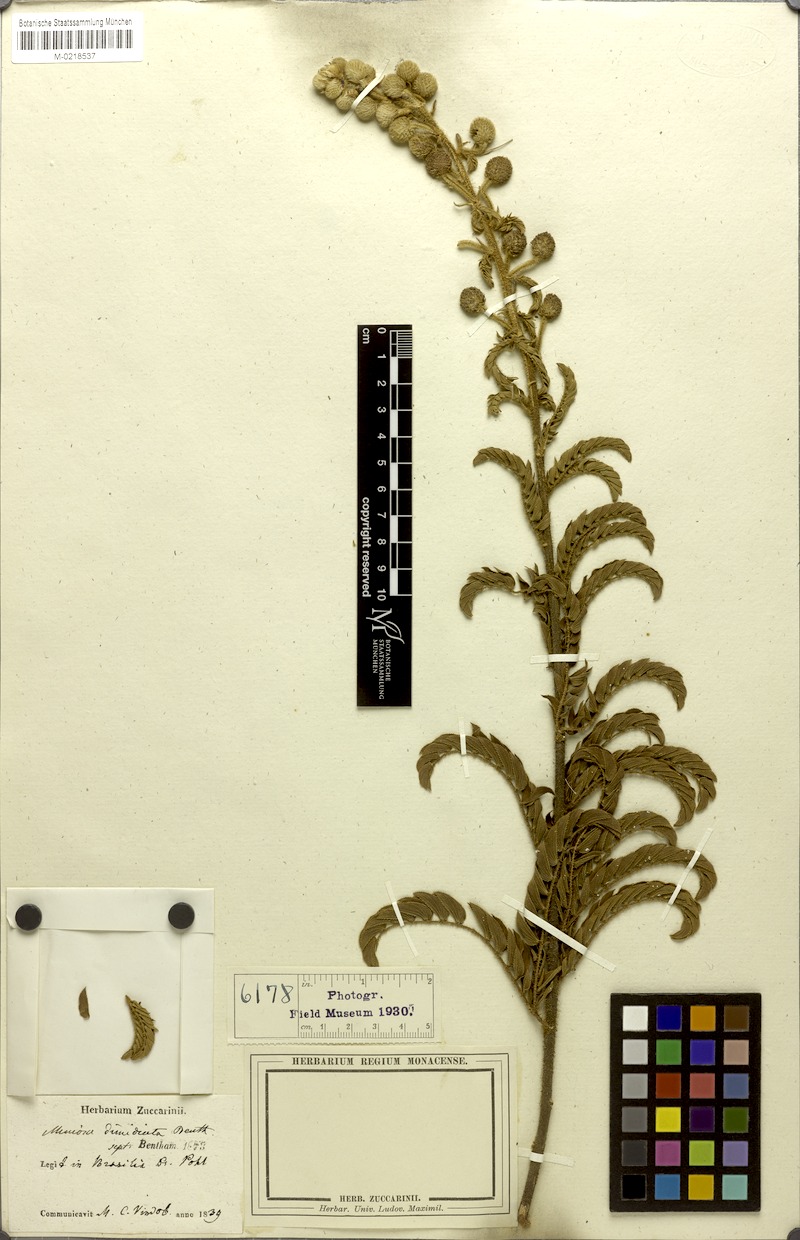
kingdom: Plantae
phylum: Tracheophyta
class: Magnoliopsida
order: Fabales
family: Fabaceae
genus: Mimosa
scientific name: Mimosa radula
